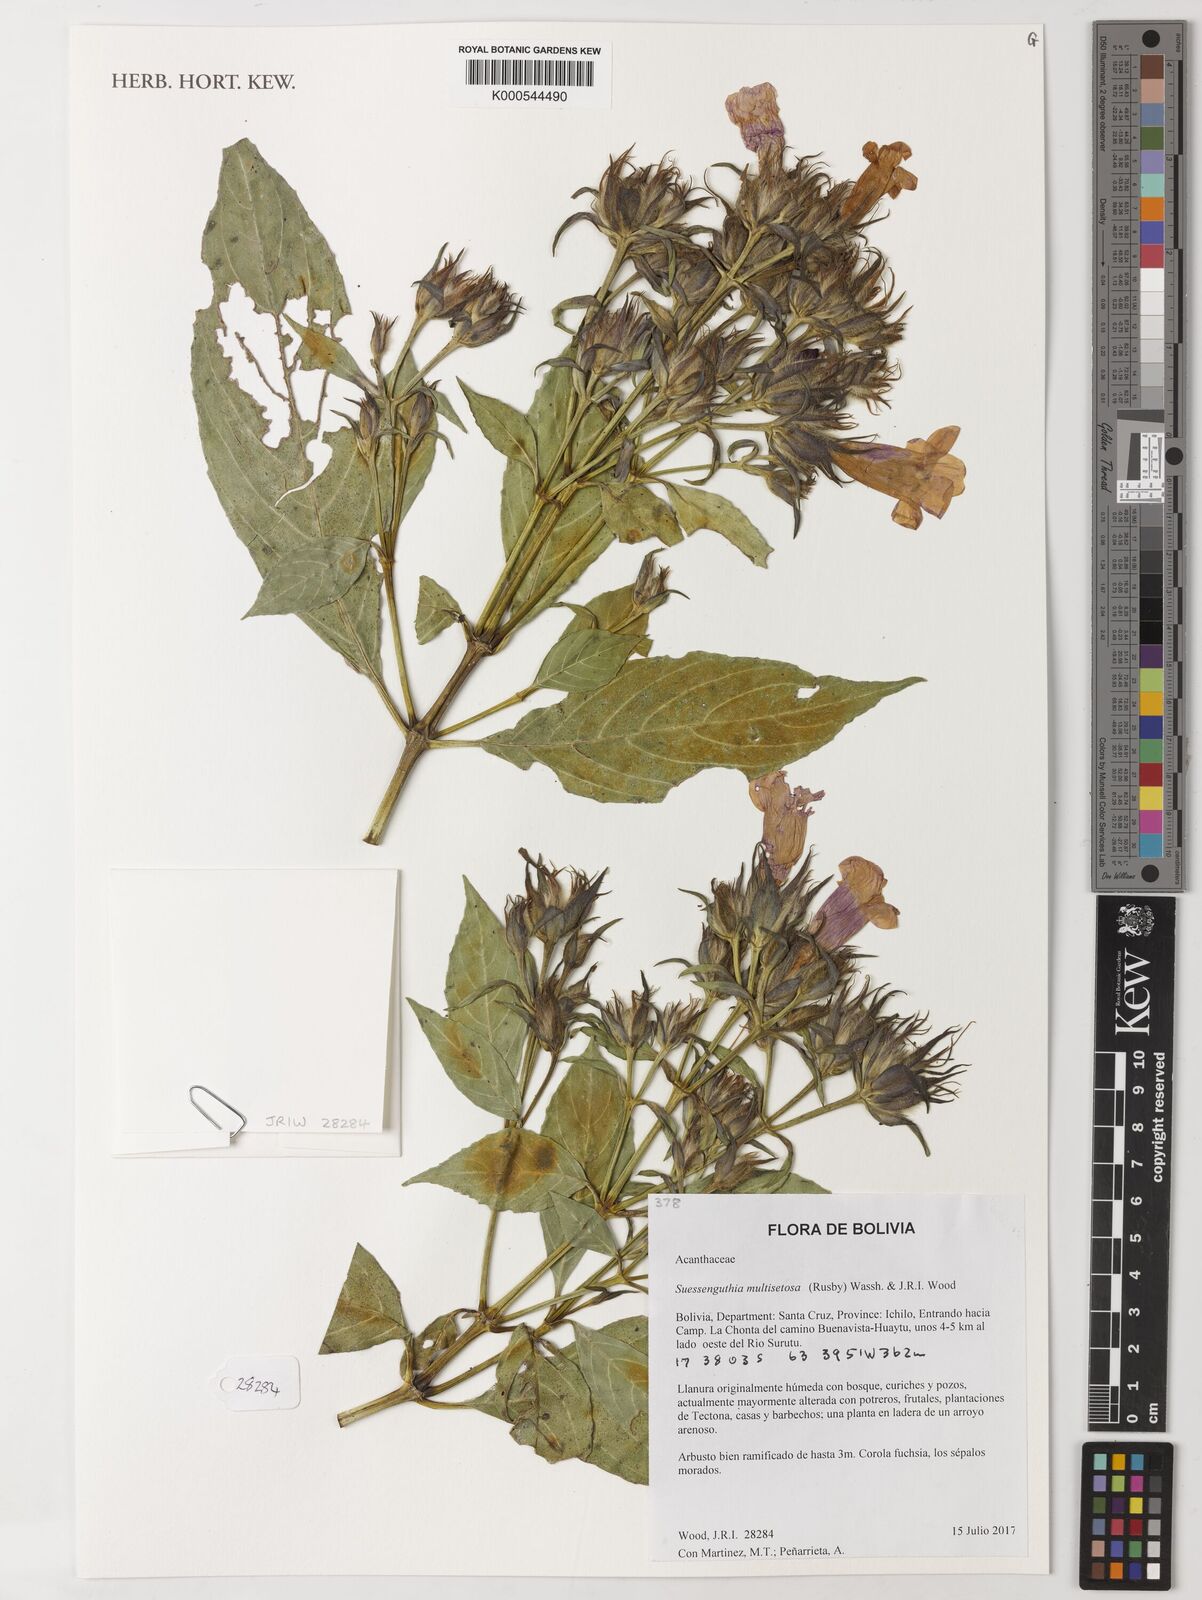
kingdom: Plantae
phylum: Tracheophyta
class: Magnoliopsida
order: Lamiales
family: Acanthaceae
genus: Suessenguthia
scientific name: Suessenguthia multisetosa
